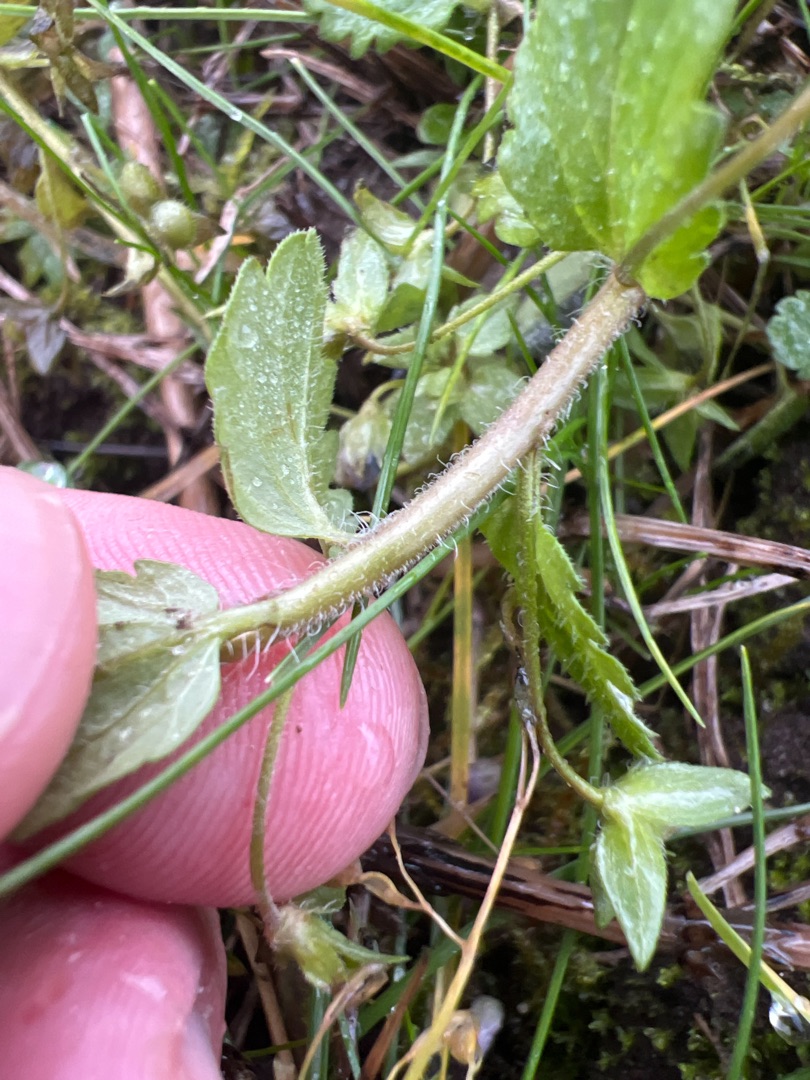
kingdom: Plantae
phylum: Tracheophyta
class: Magnoliopsida
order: Lamiales
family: Plantaginaceae
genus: Veronica
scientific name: Veronica chamaedrys
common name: Tveskægget ærenpris
